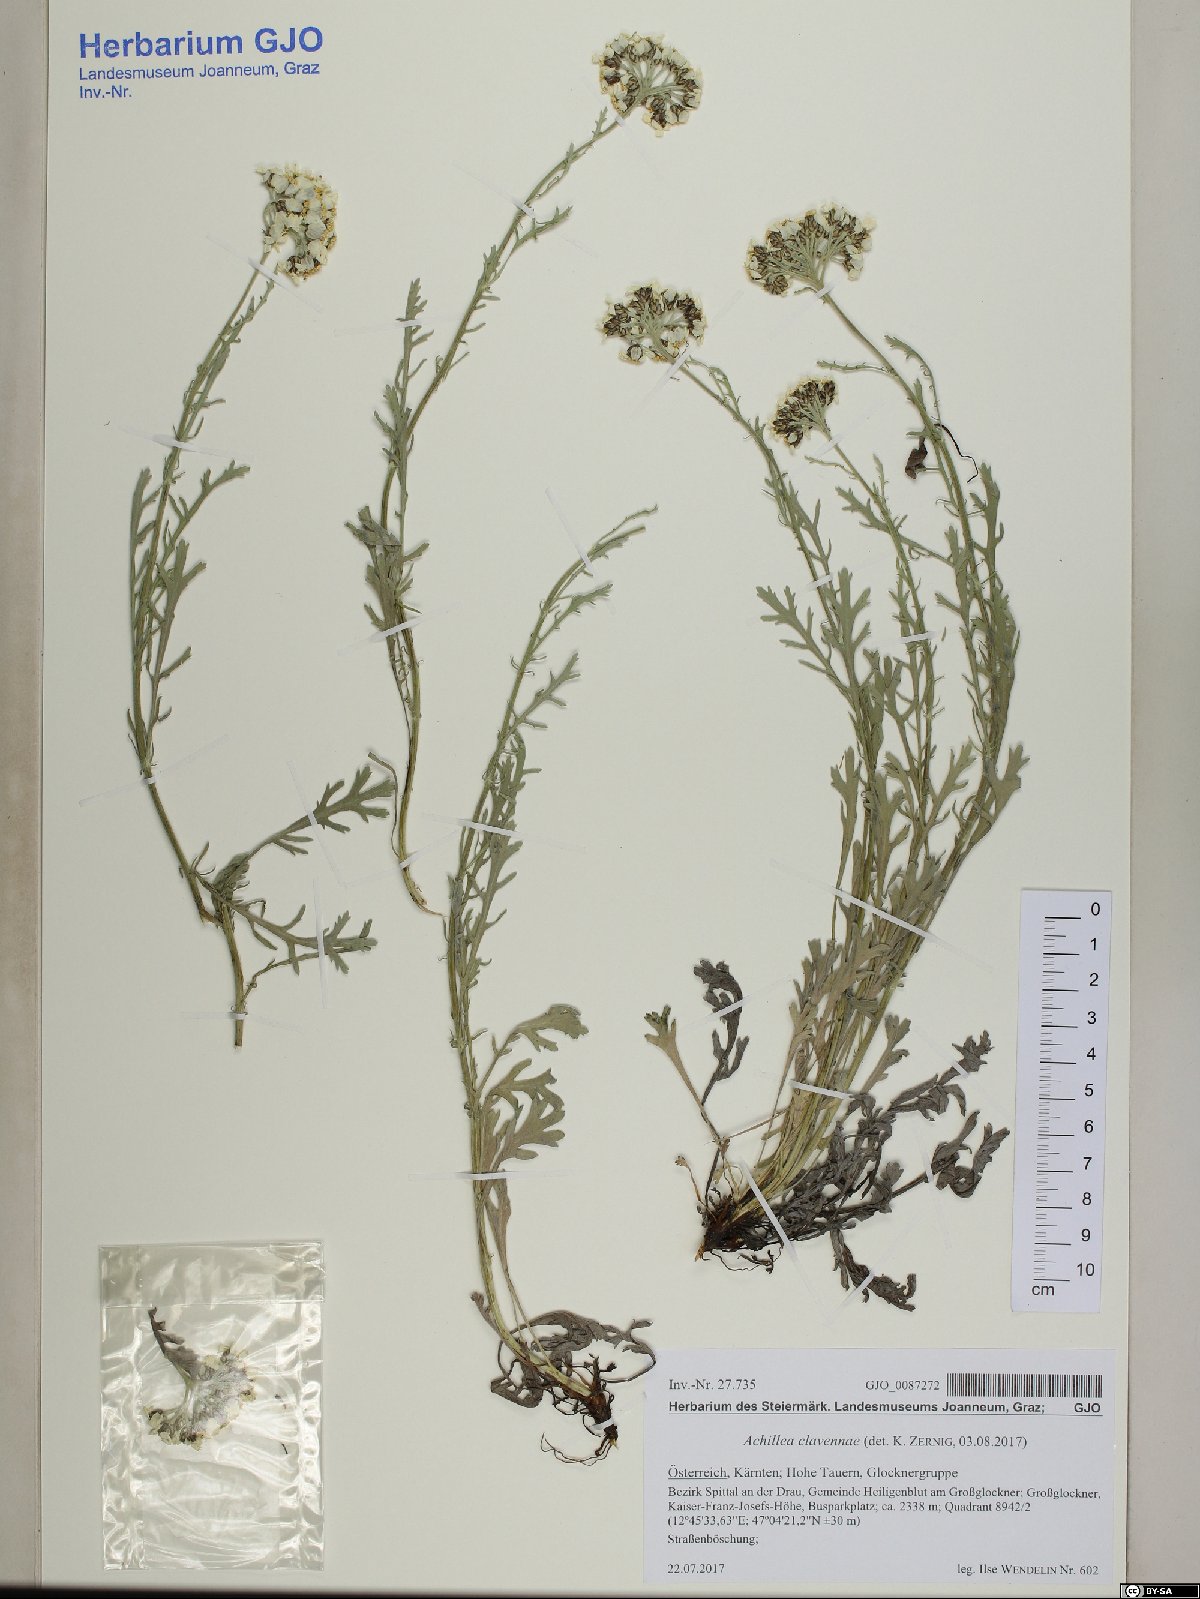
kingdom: Plantae
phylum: Tracheophyta
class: Magnoliopsida
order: Asterales
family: Asteraceae
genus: Achillea
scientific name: Achillea clavennae
